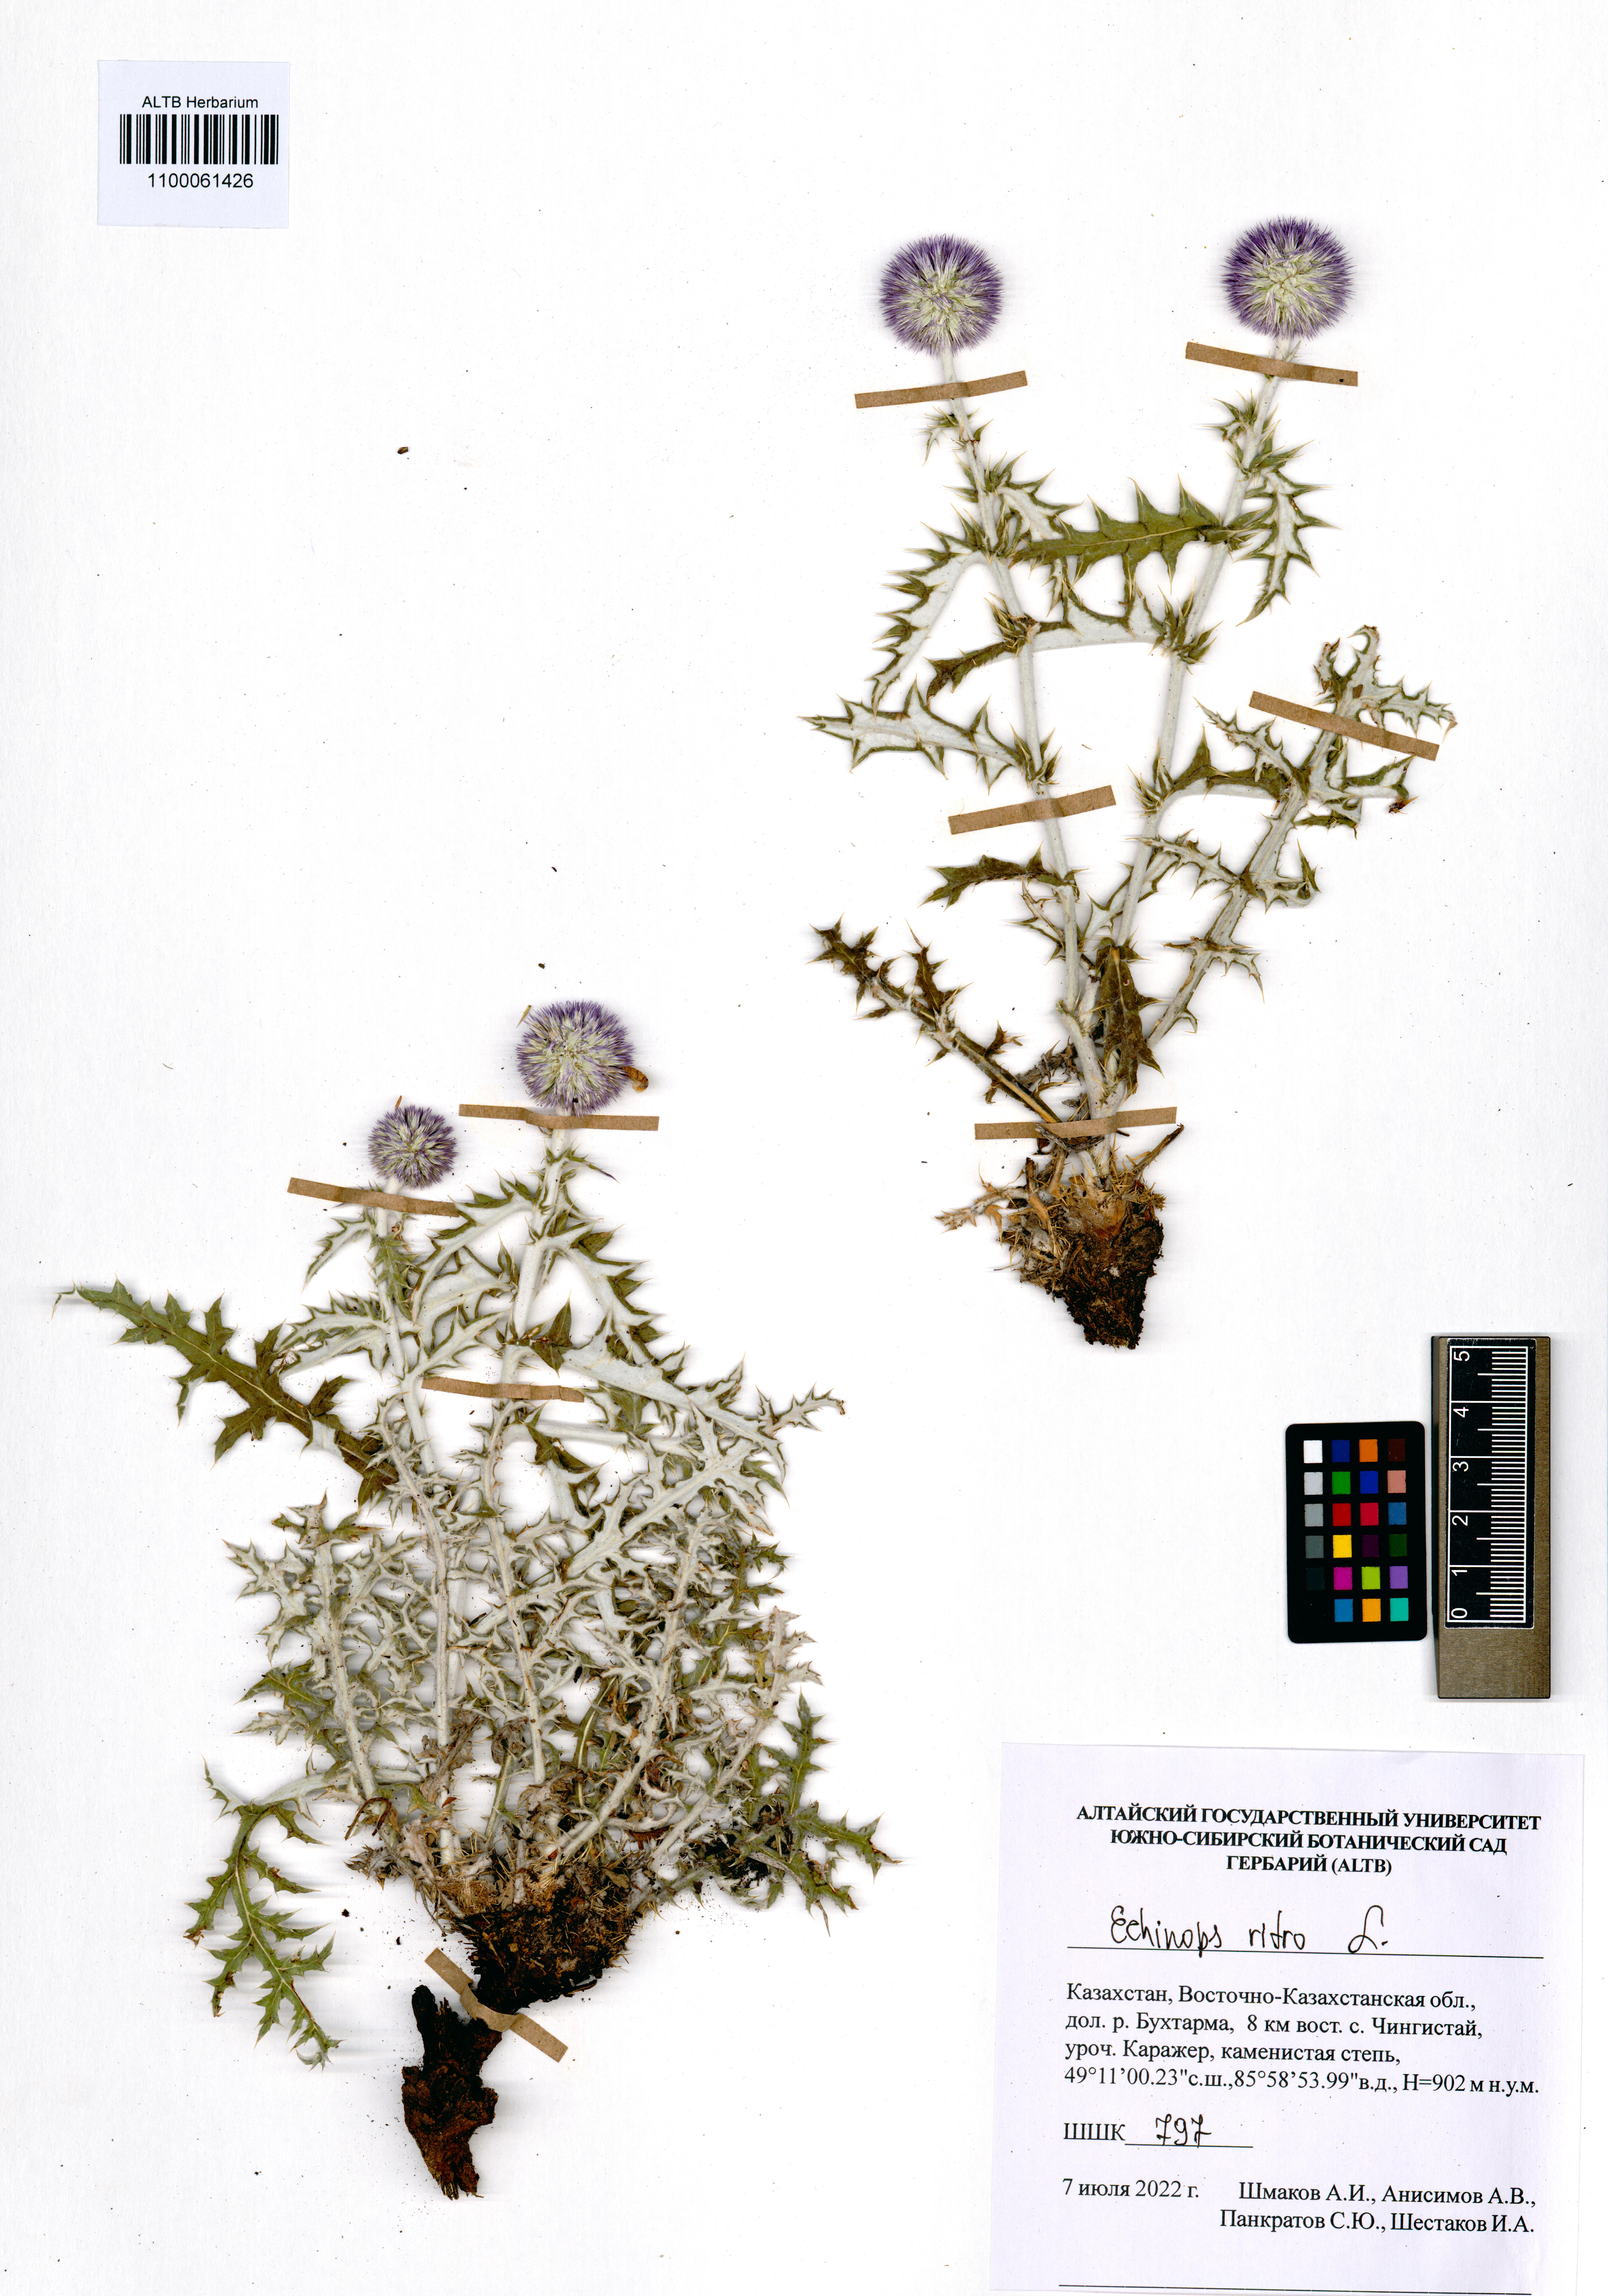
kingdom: Plantae
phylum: Tracheophyta
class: Magnoliopsida
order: Asterales
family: Asteraceae
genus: Echinops
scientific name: Echinops ritro
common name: Globe thistle
